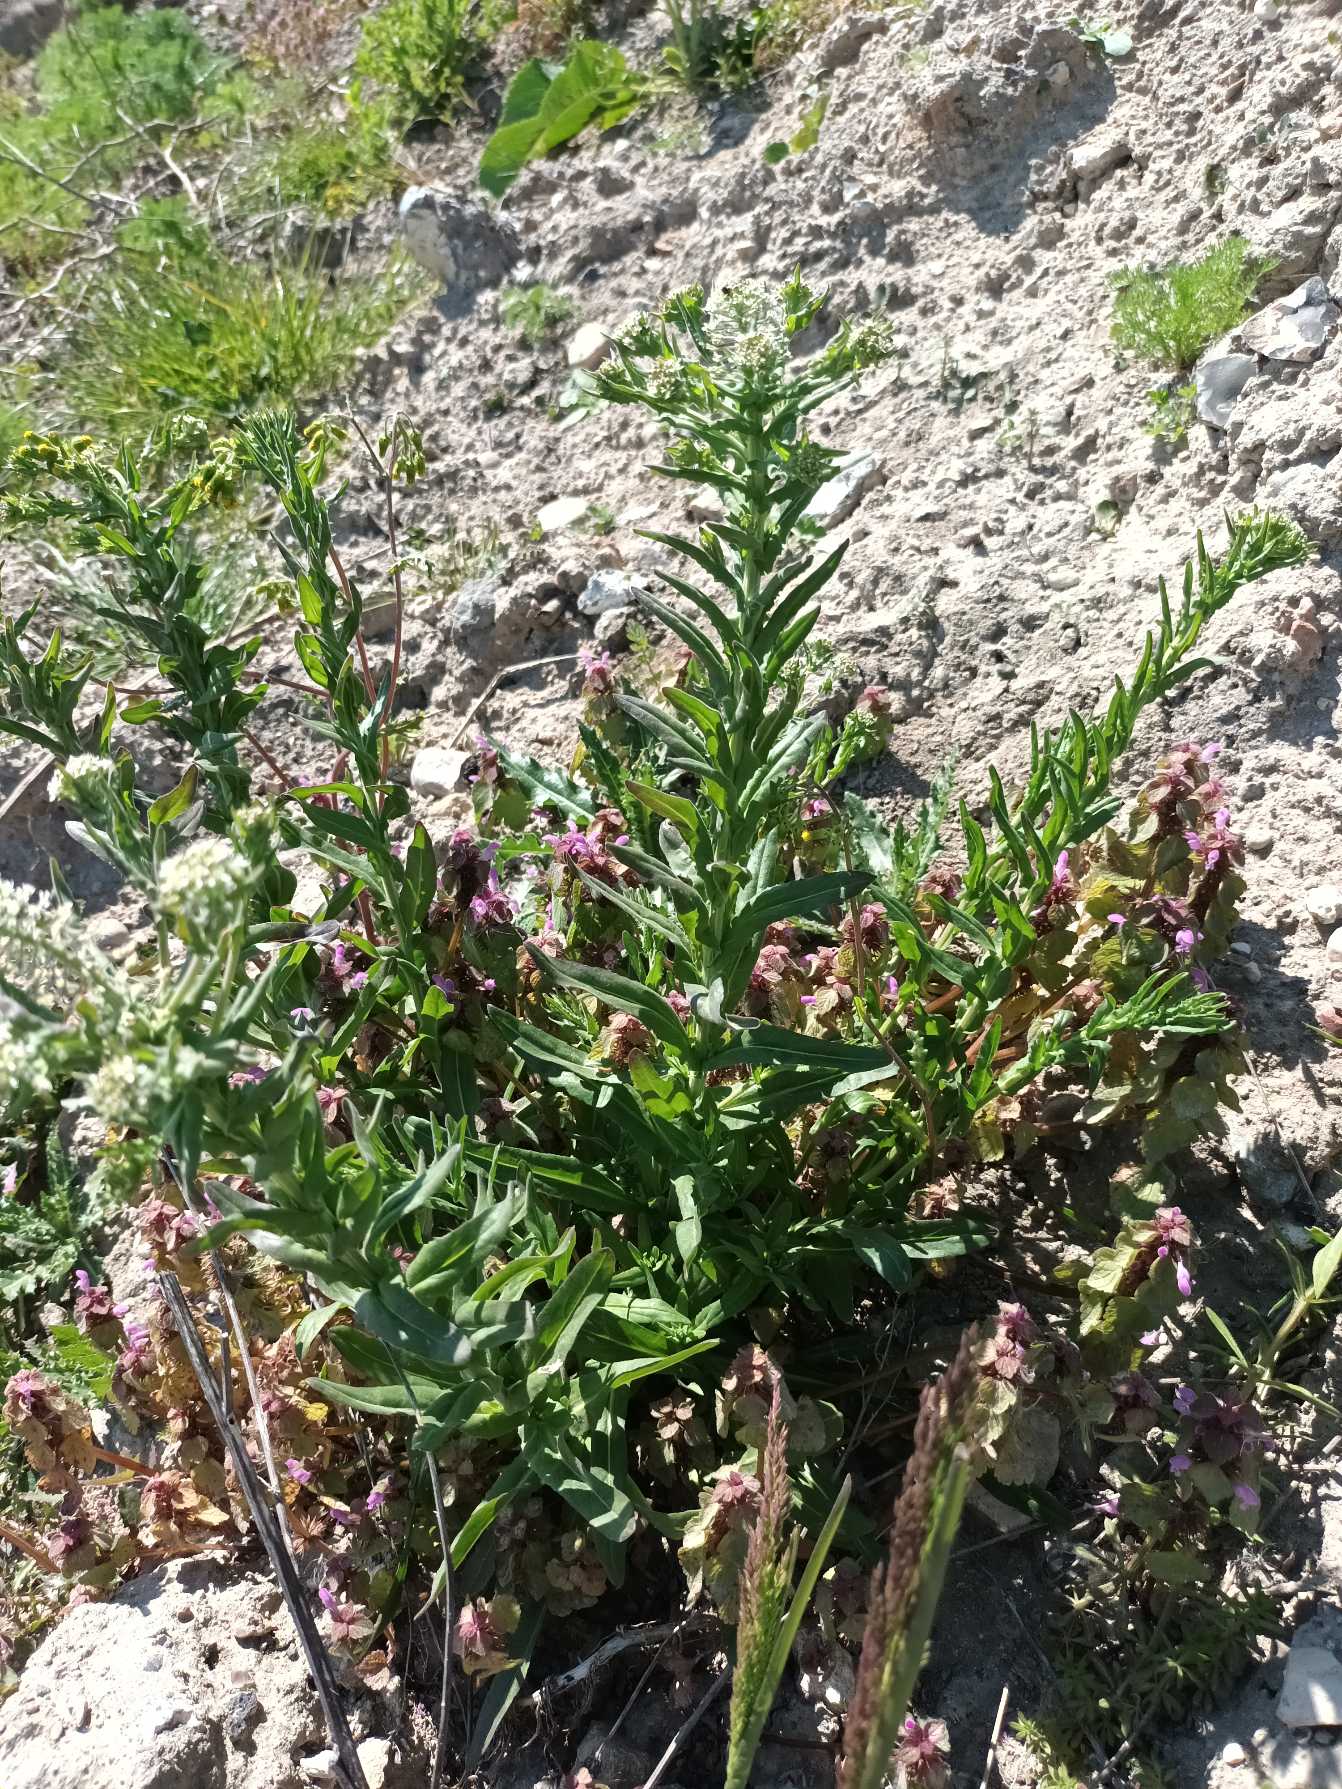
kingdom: Plantae
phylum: Tracheophyta
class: Magnoliopsida
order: Brassicales
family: Brassicaceae
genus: Lepidium
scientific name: Lepidium heterophyllum
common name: Forskelligbladet karse
